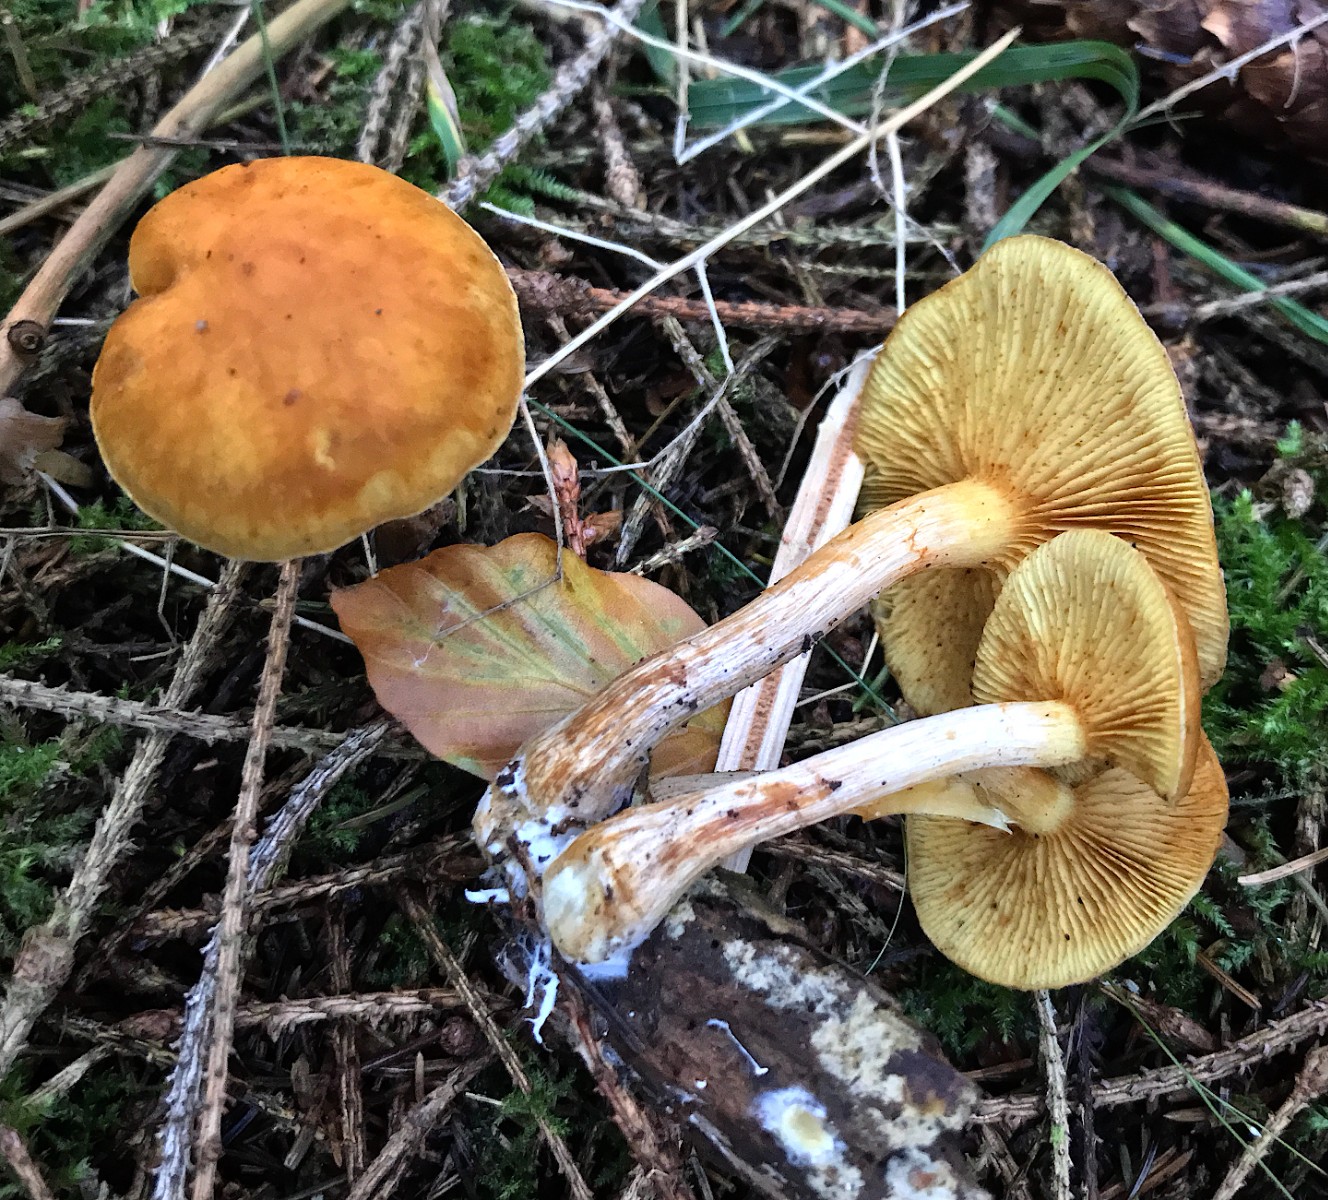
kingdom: Fungi
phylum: Basidiomycota
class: Agaricomycetes
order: Agaricales
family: Hymenogastraceae
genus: Gymnopilus
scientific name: Gymnopilus penetrans
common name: plettet flammehat
